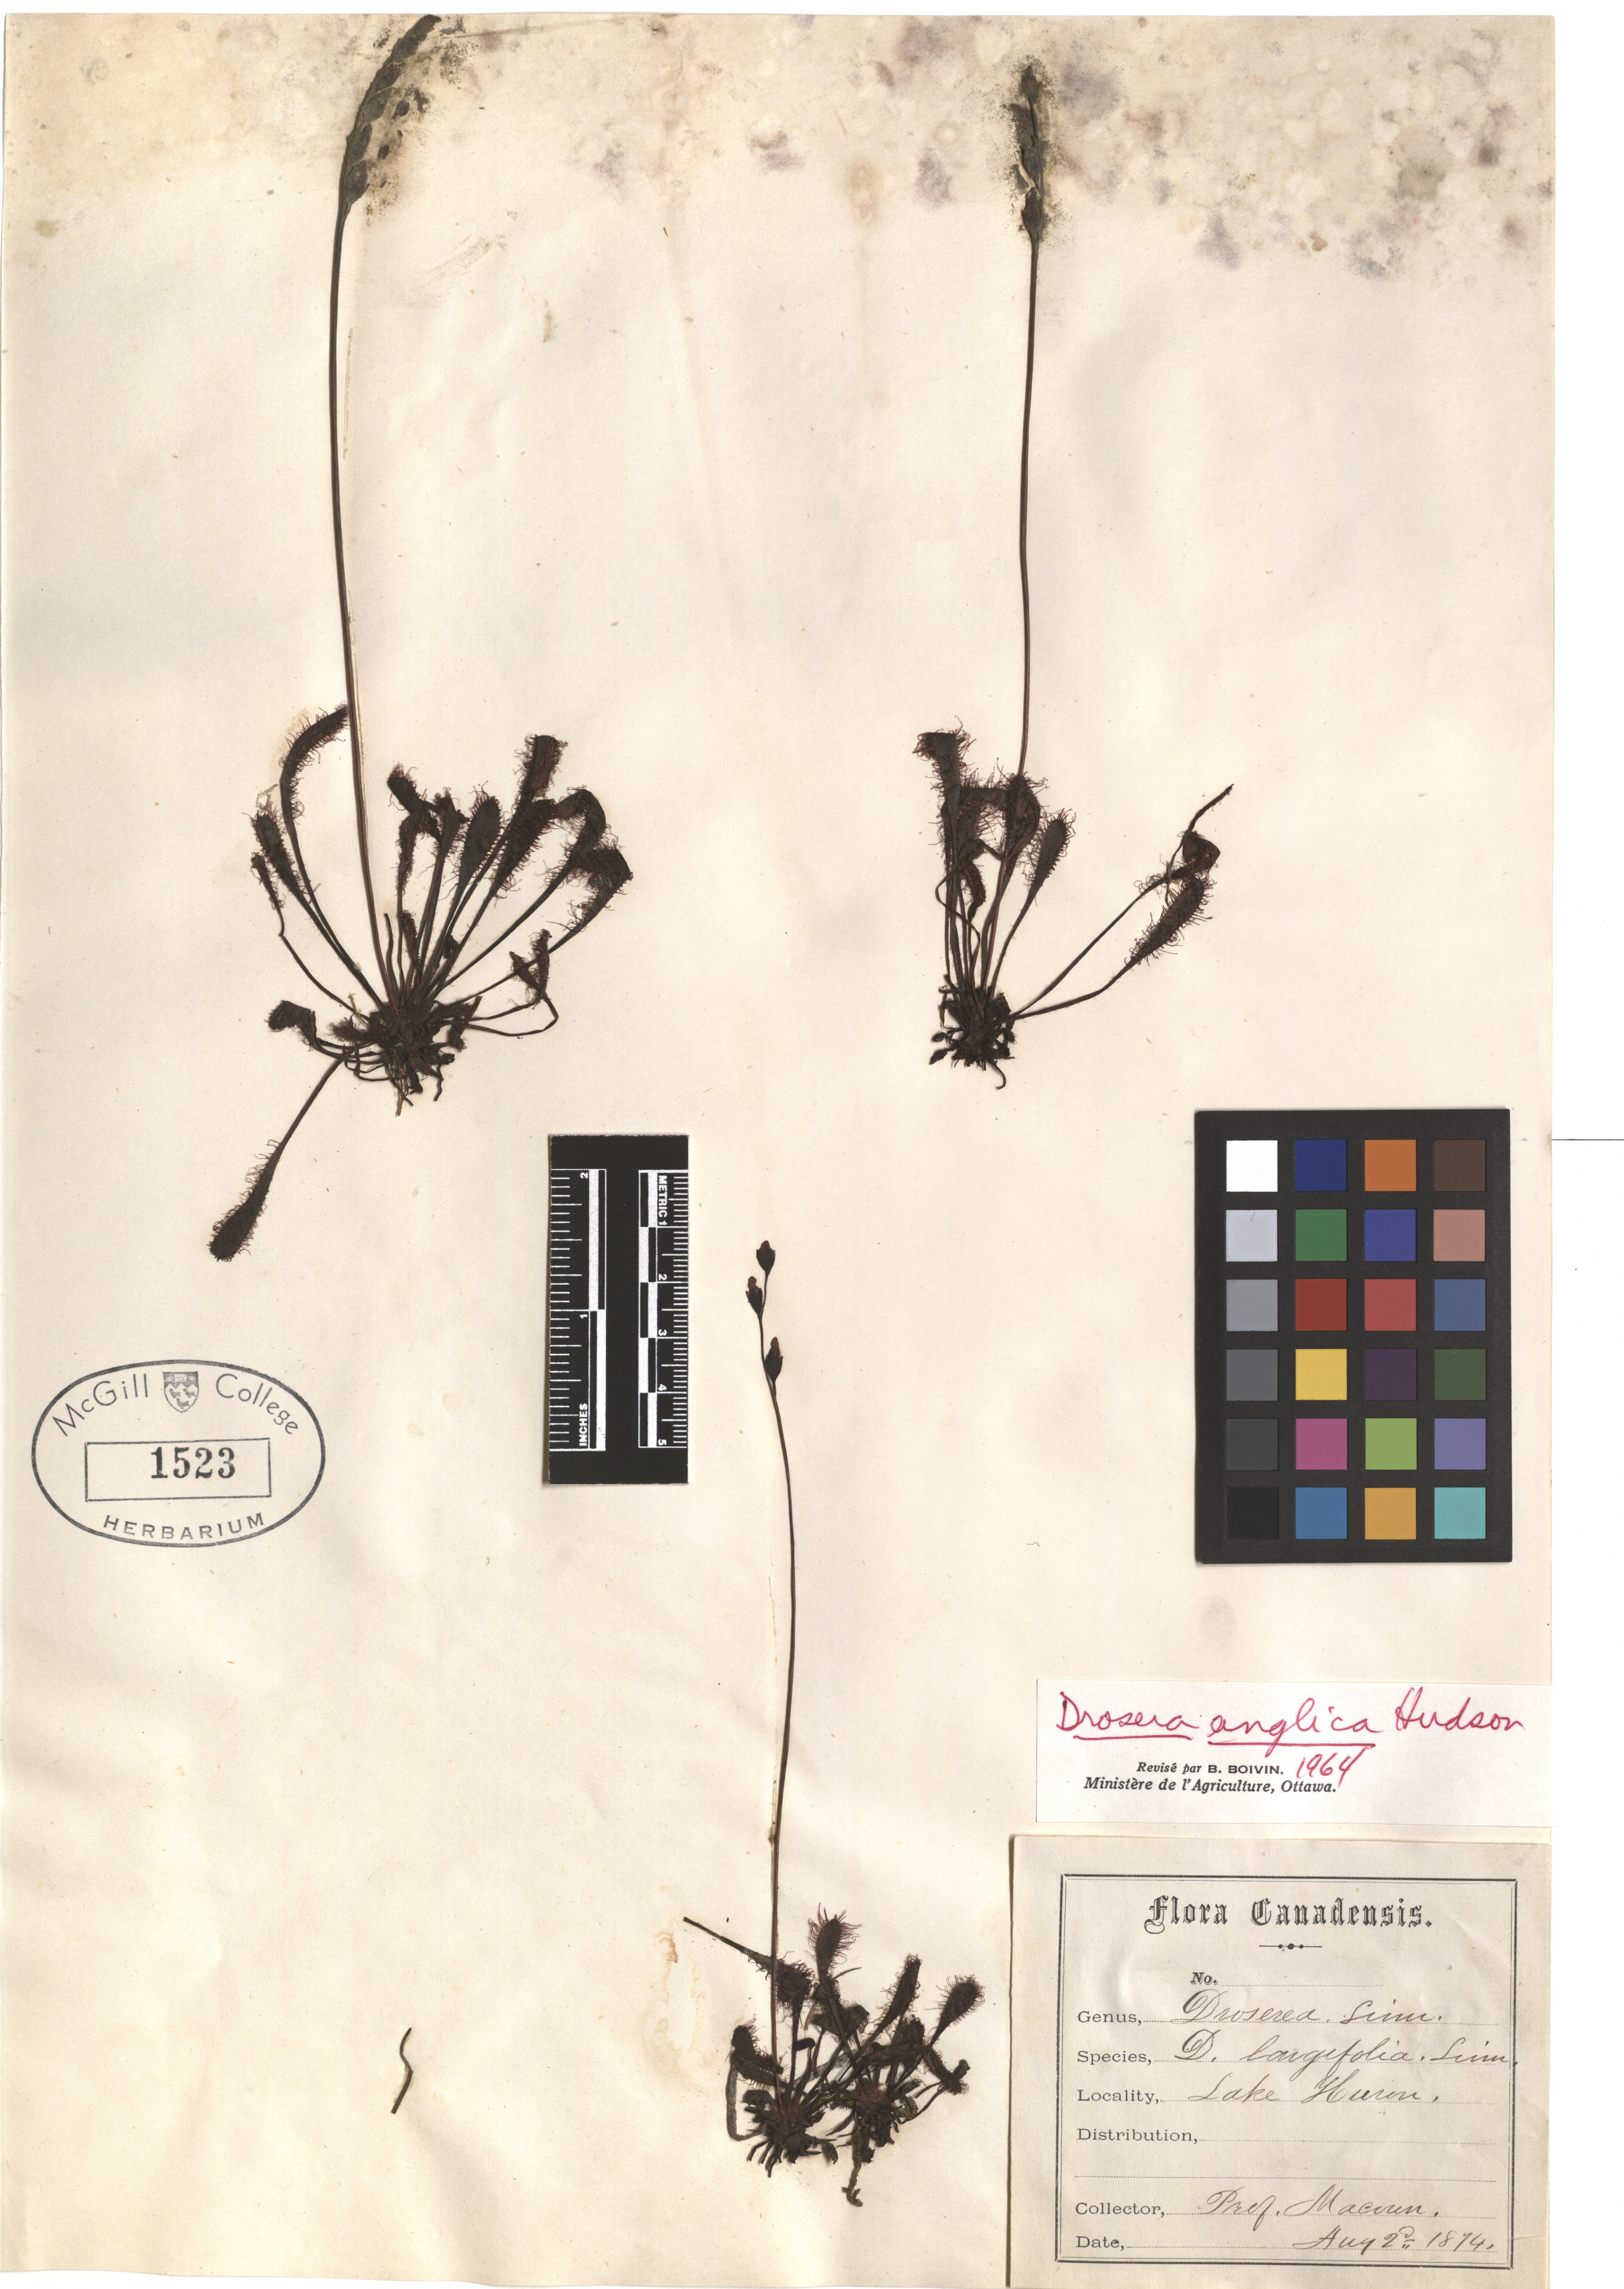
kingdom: Plantae
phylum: Tracheophyta
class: Magnoliopsida
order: Caryophyllales
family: Droseraceae
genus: Drosera
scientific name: Drosera anglica
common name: Great sundew
